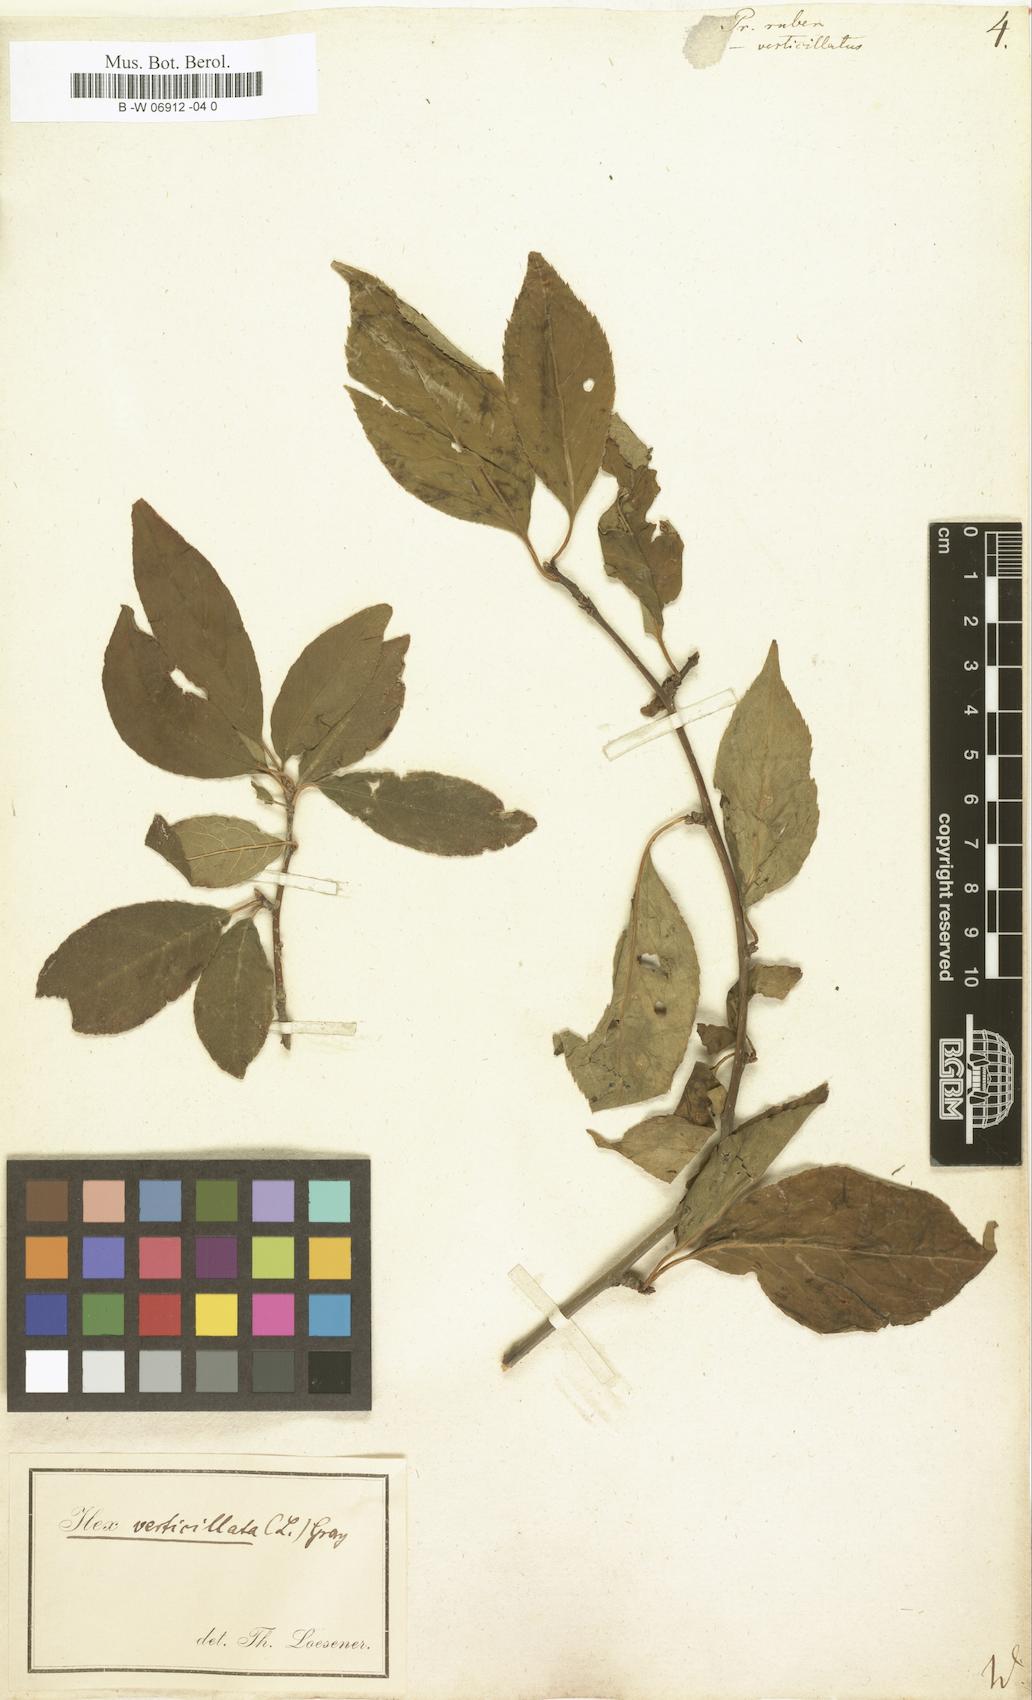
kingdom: Plantae
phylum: Tracheophyta
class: Magnoliopsida
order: Aquifoliales
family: Aquifoliaceae
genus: Ilex
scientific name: Ilex
